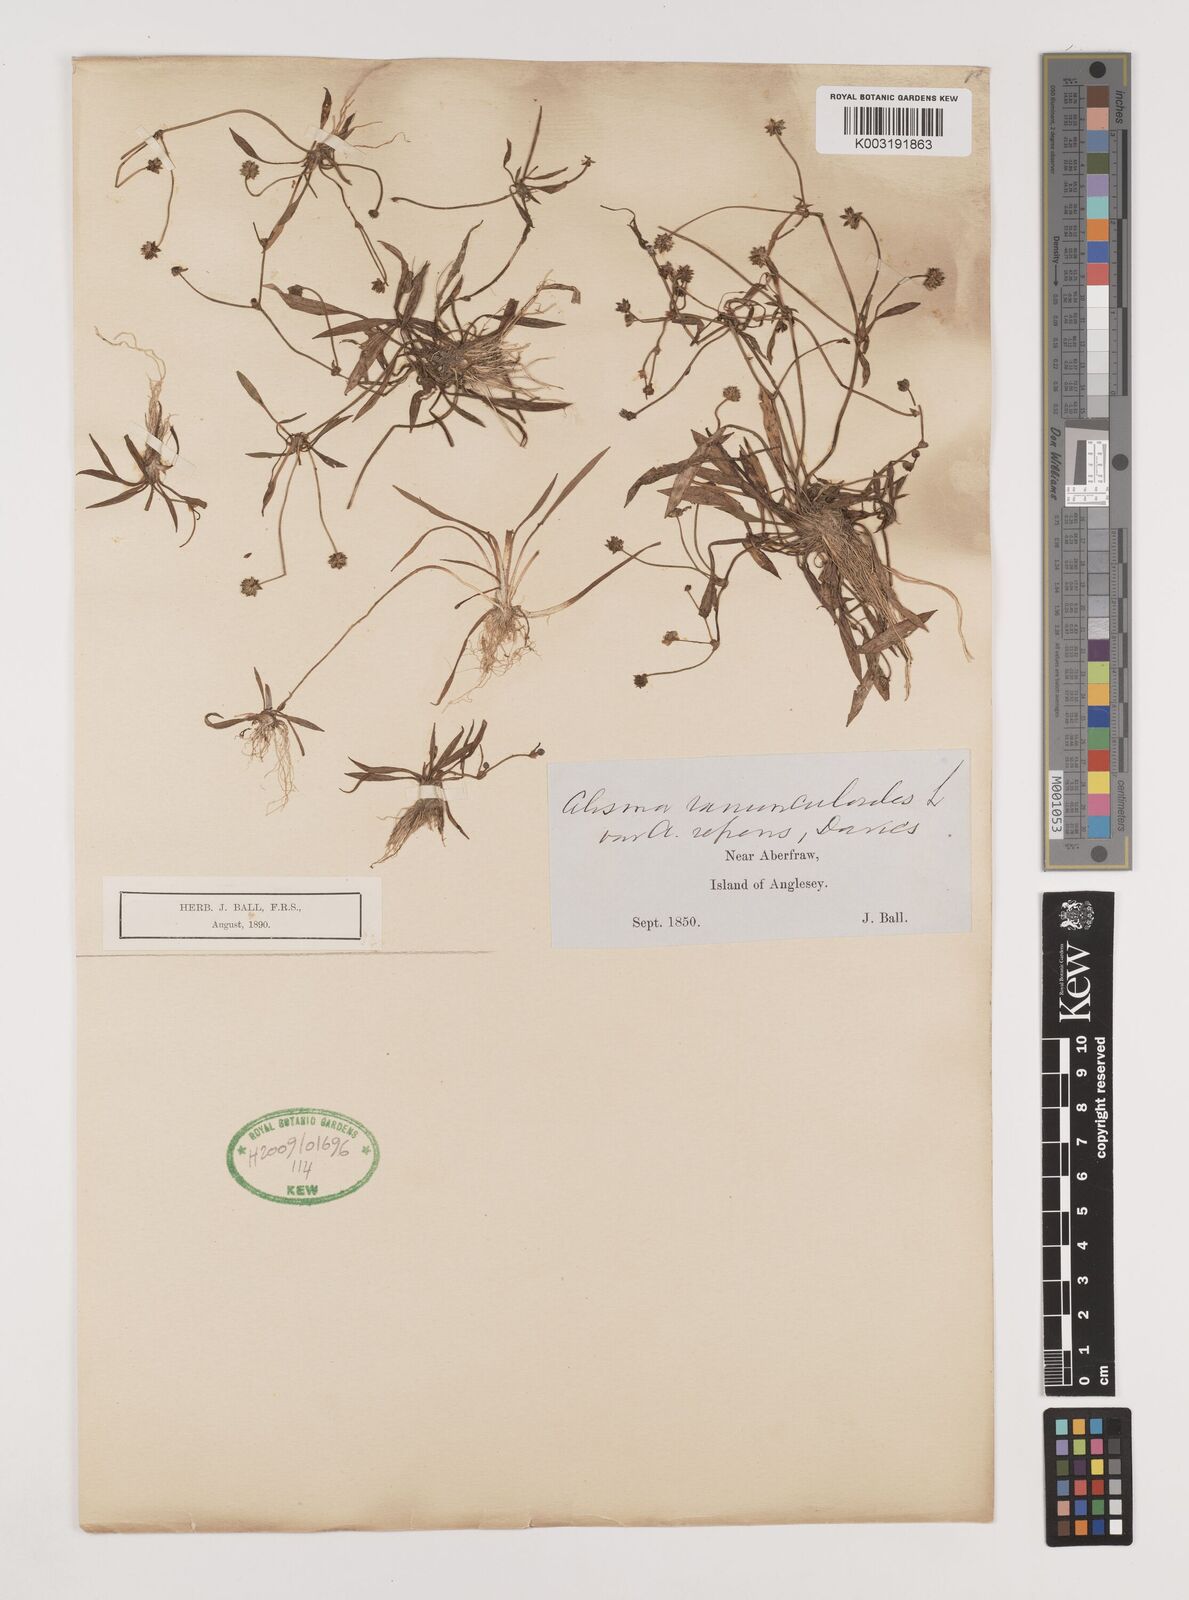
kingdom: Plantae
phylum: Tracheophyta
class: Liliopsida
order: Alismatales
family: Alismataceae
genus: Baldellia
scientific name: Baldellia repens
